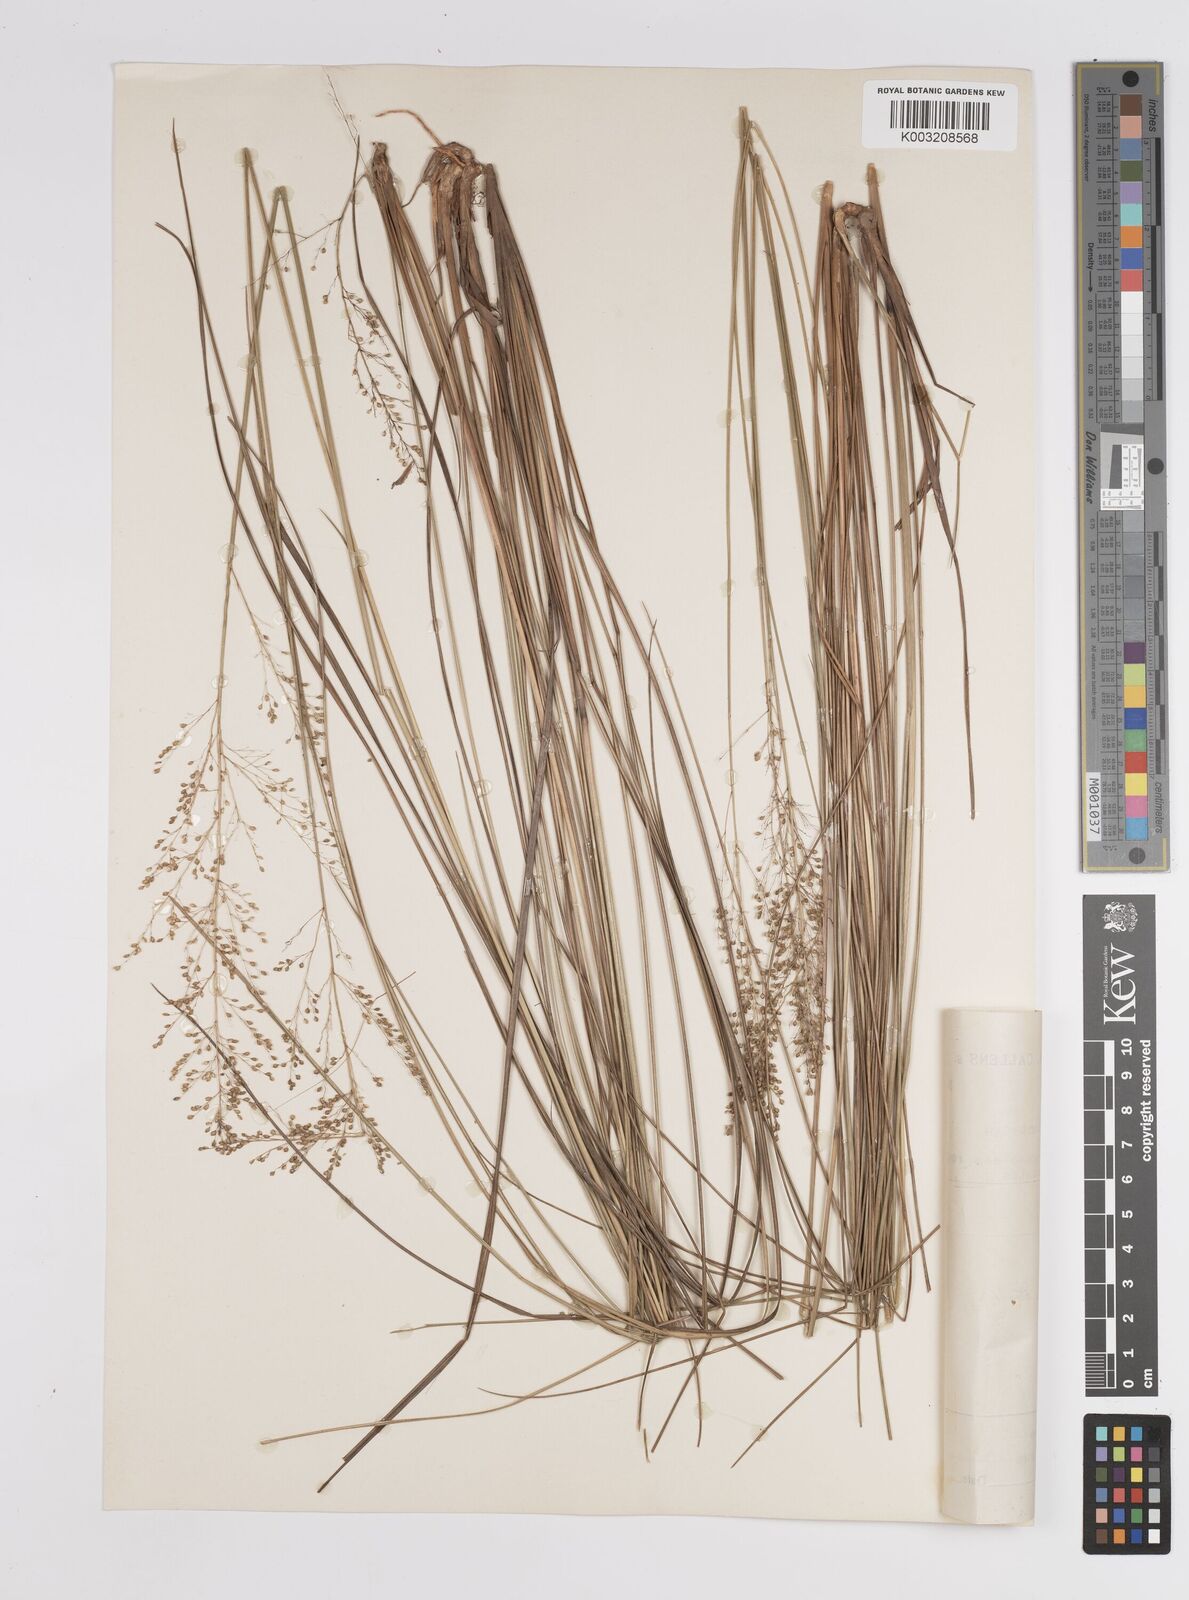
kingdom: Plantae
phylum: Tracheophyta
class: Liliopsida
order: Poales
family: Poaceae
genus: Trichanthecium
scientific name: Trichanthecium natalense
